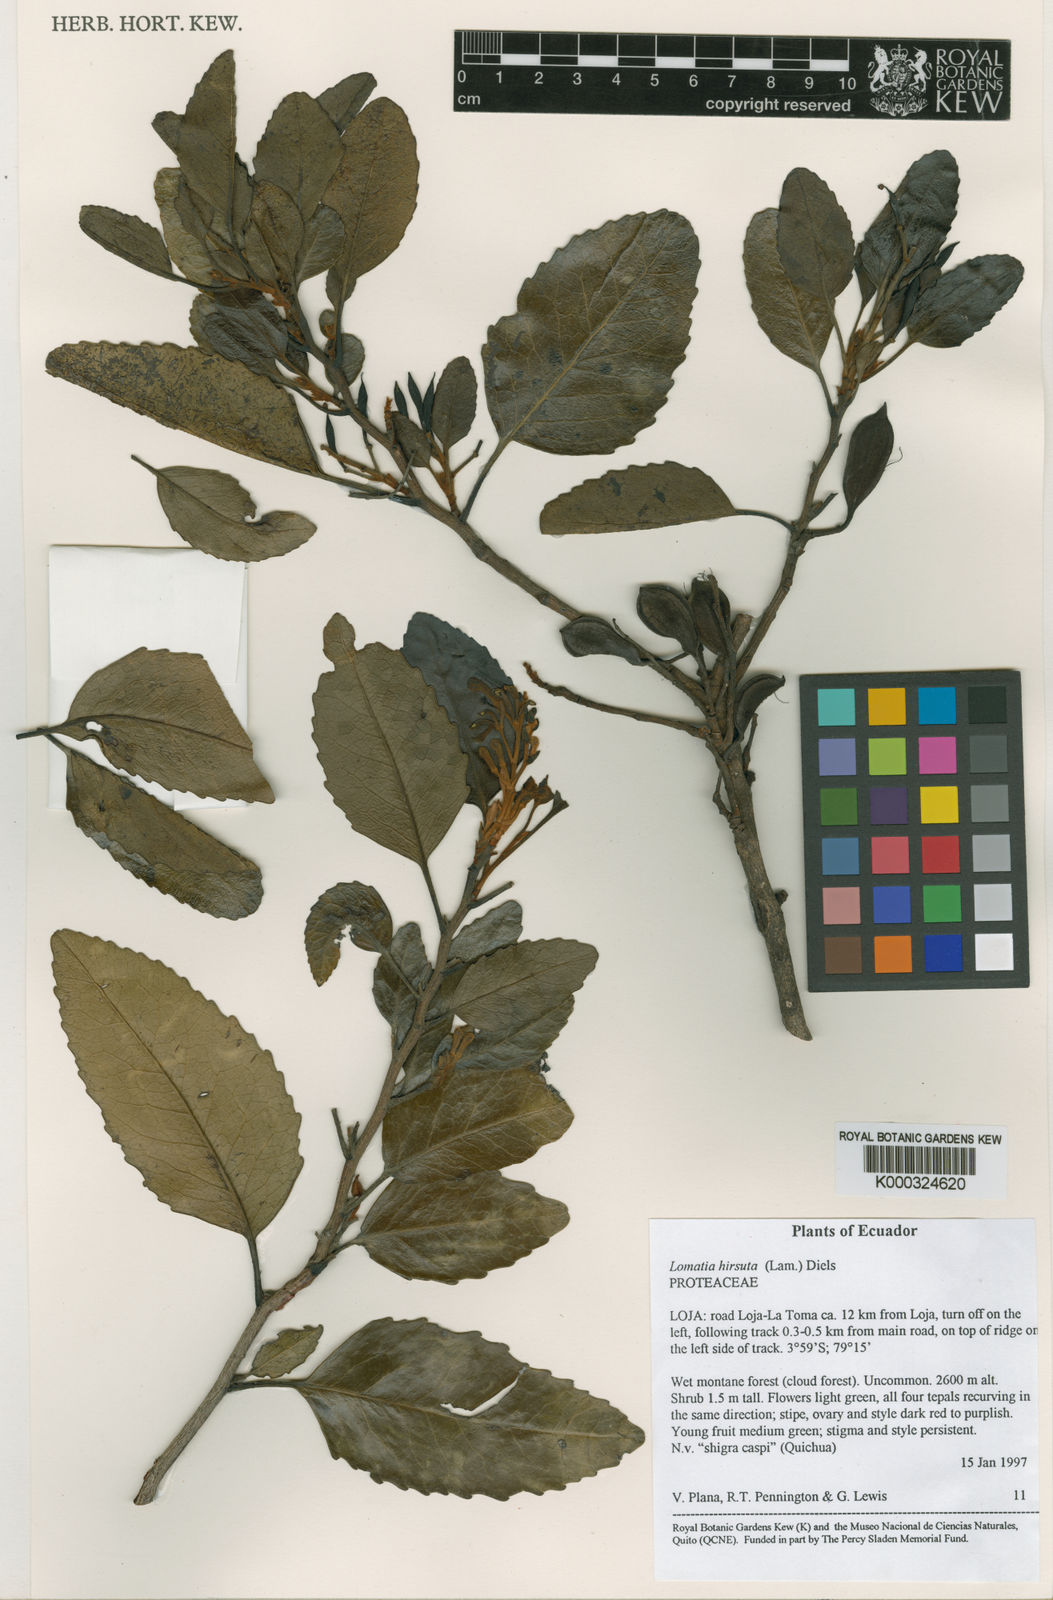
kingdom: Plantae
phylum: Tracheophyta
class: Magnoliopsida
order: Proteales
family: Proteaceae
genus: Lomatia
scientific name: Lomatia hirsuta
